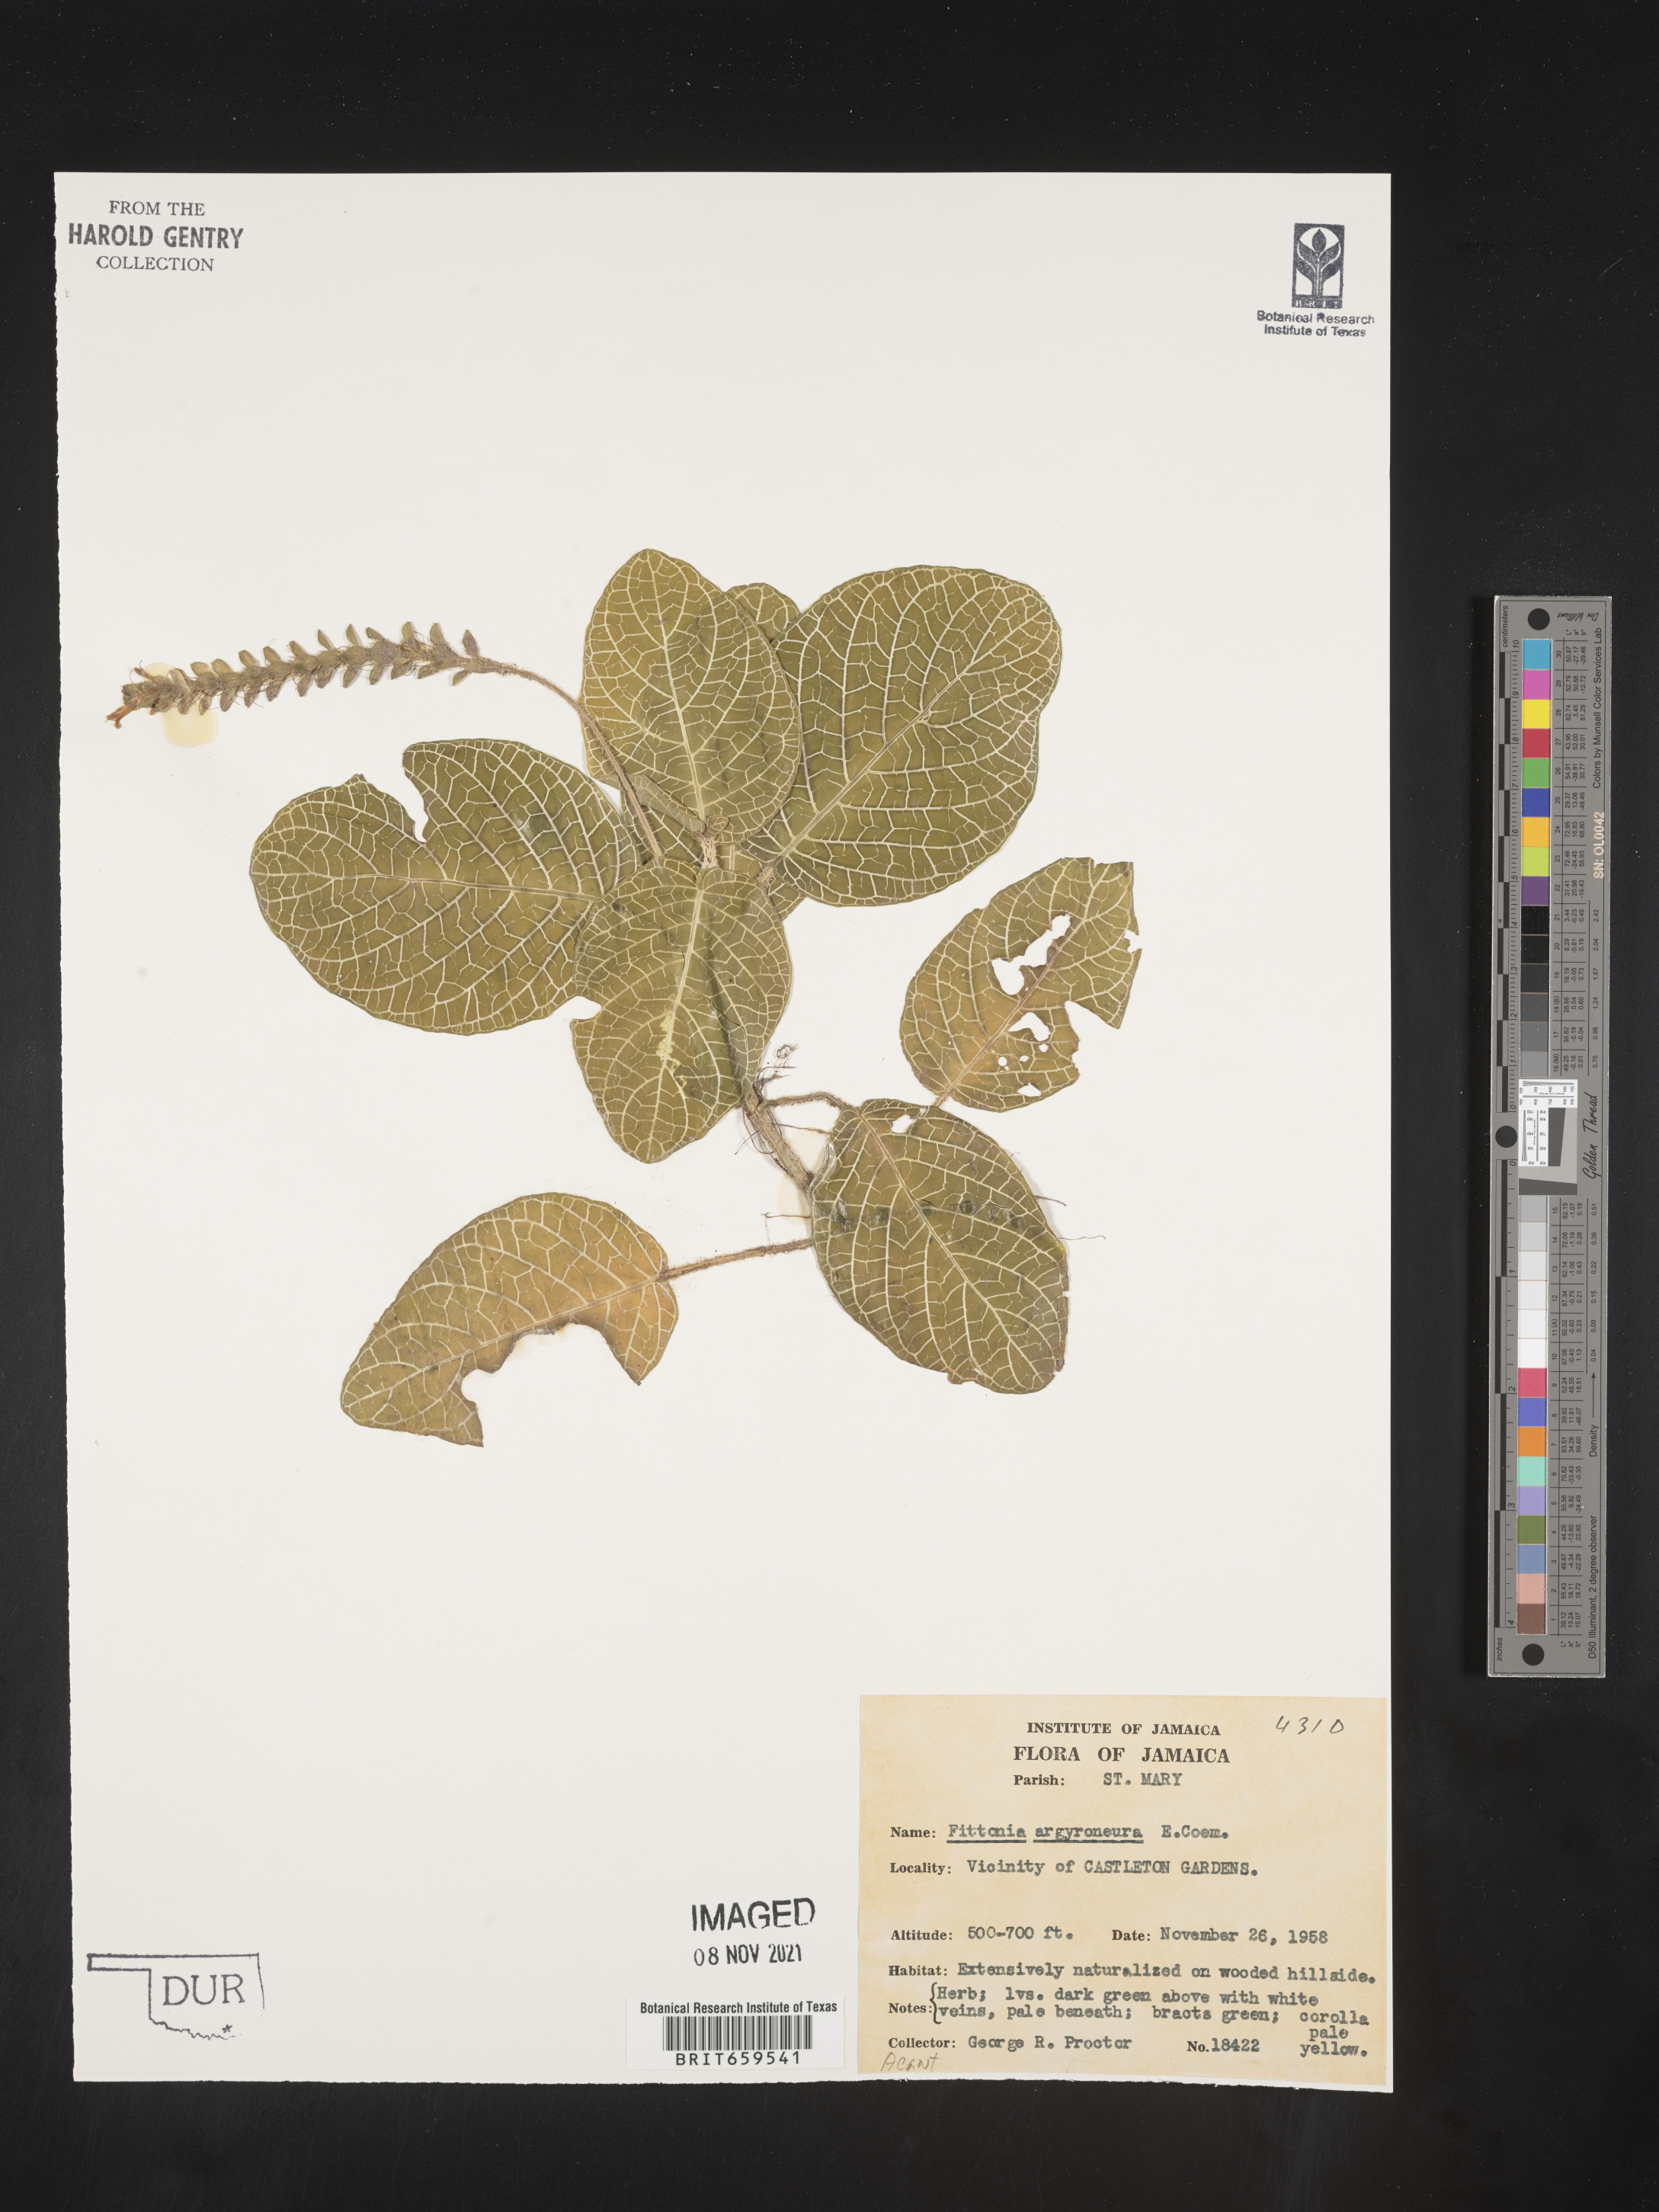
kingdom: Plantae
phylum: Tracheophyta
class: Magnoliopsida
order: Lamiales
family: Acanthaceae
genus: Fittonia
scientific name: Fittonia
